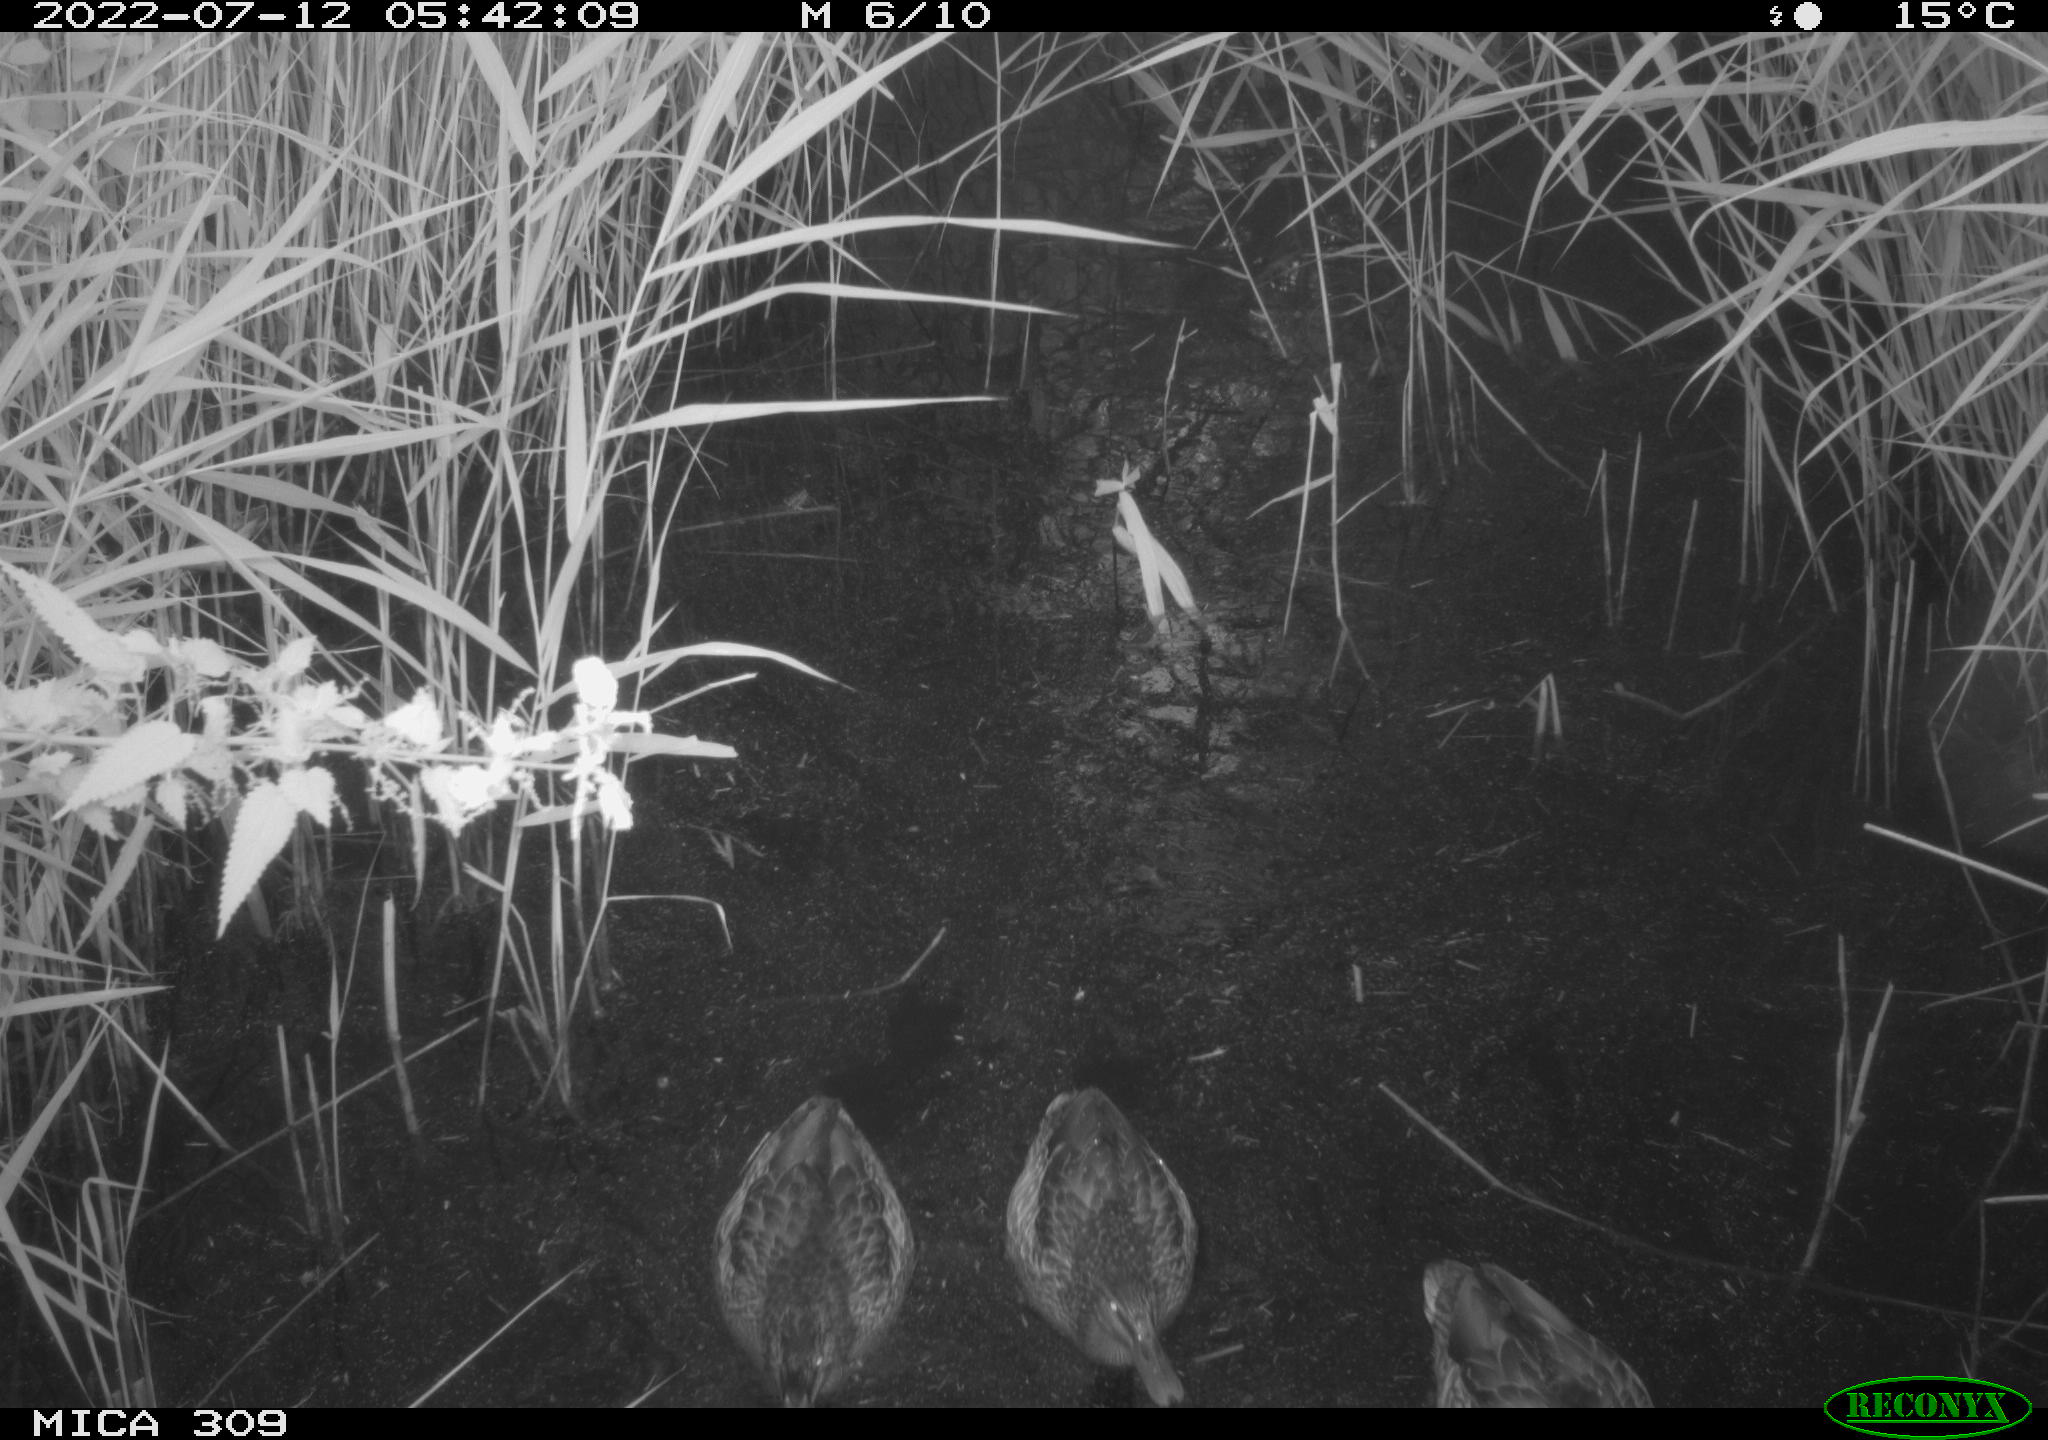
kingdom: Animalia
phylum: Chordata
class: Aves
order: Anseriformes
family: Anatidae
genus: Mareca
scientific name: Mareca strepera
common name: Gadwall
